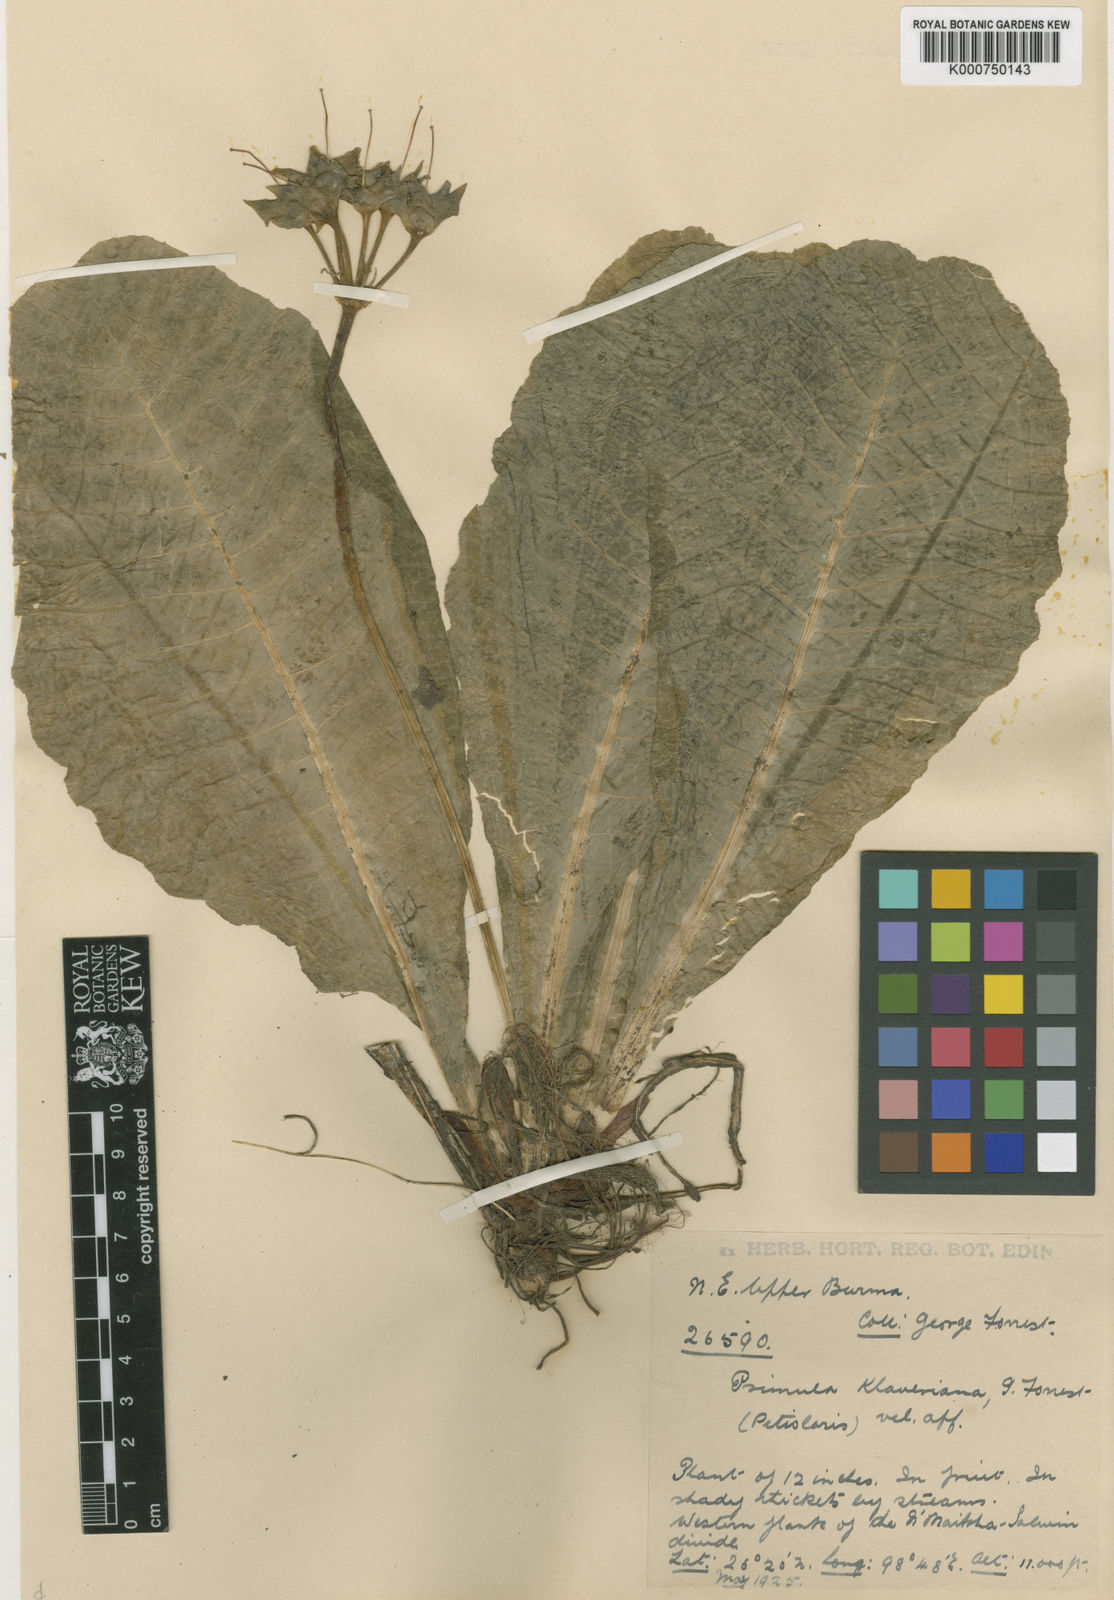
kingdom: Plantae
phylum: Tracheophyta
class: Magnoliopsida
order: Ericales
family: Primulaceae
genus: Primula
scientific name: Primula klaveriana
